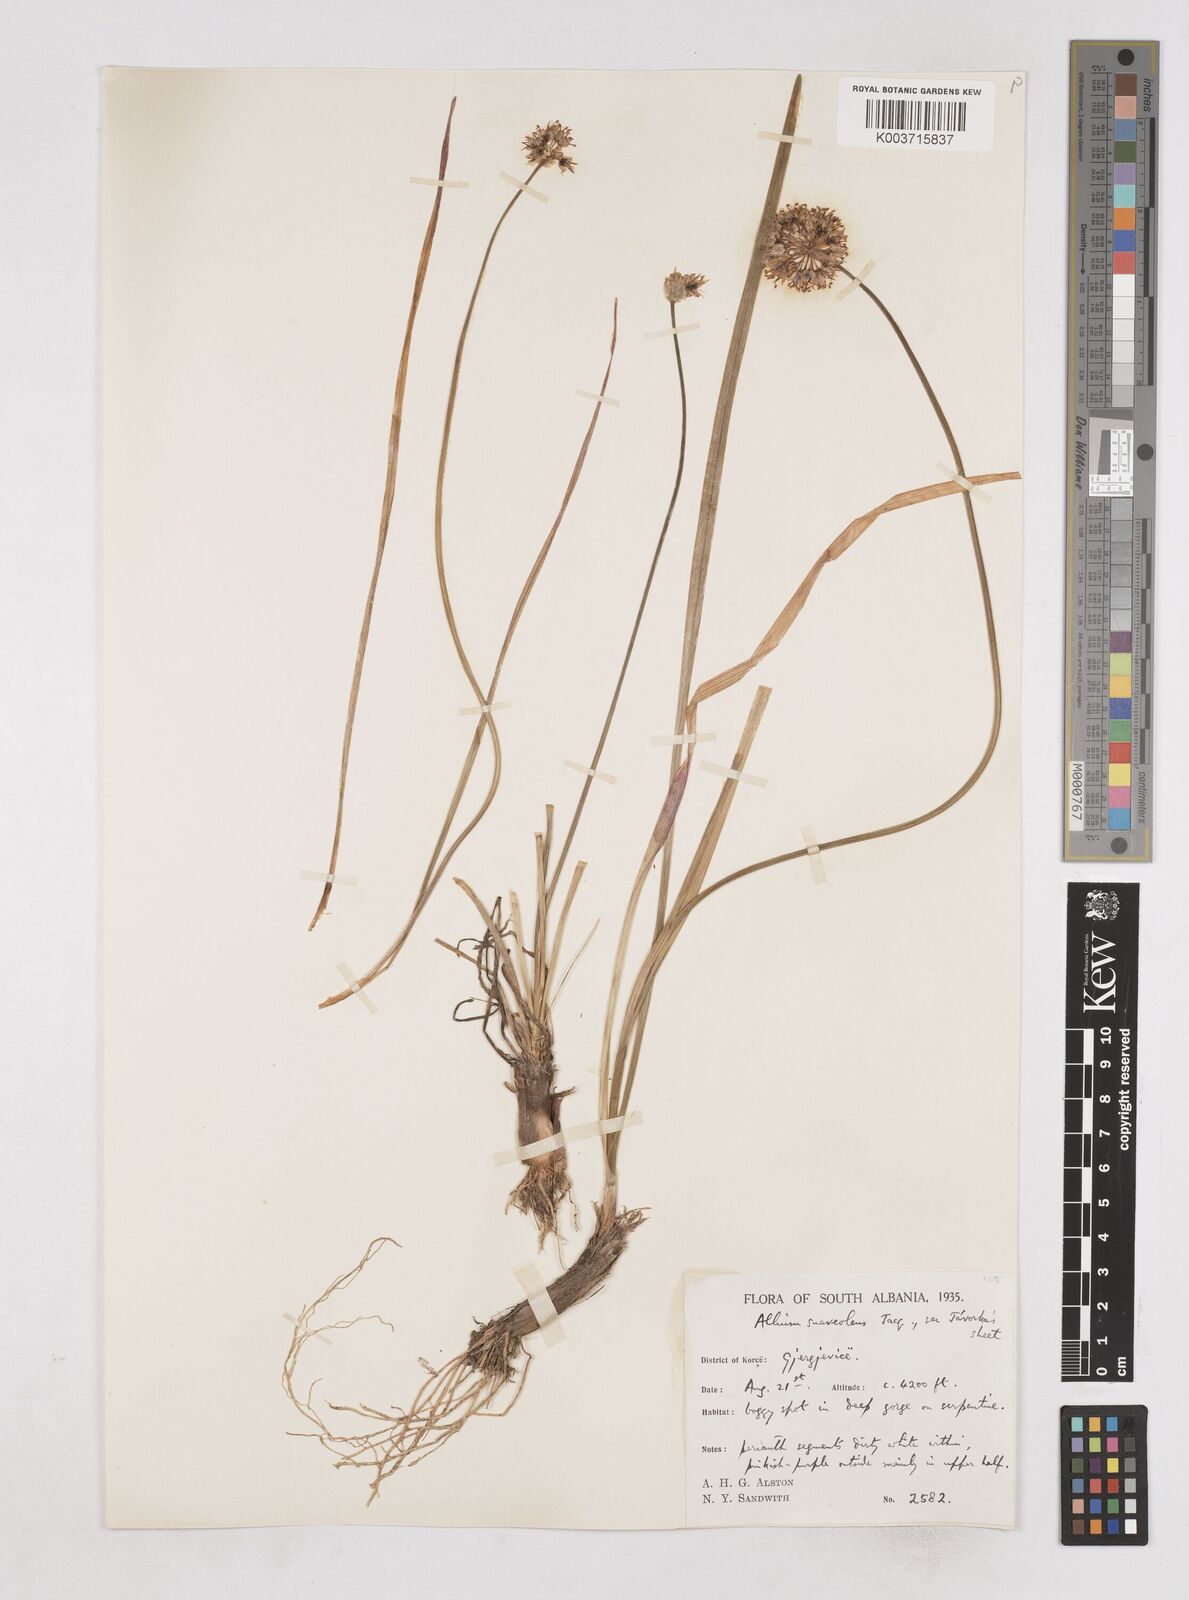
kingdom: Plantae
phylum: Tracheophyta
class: Liliopsida
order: Asparagales
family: Amaryllidaceae
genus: Allium
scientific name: Allium suaveolens
